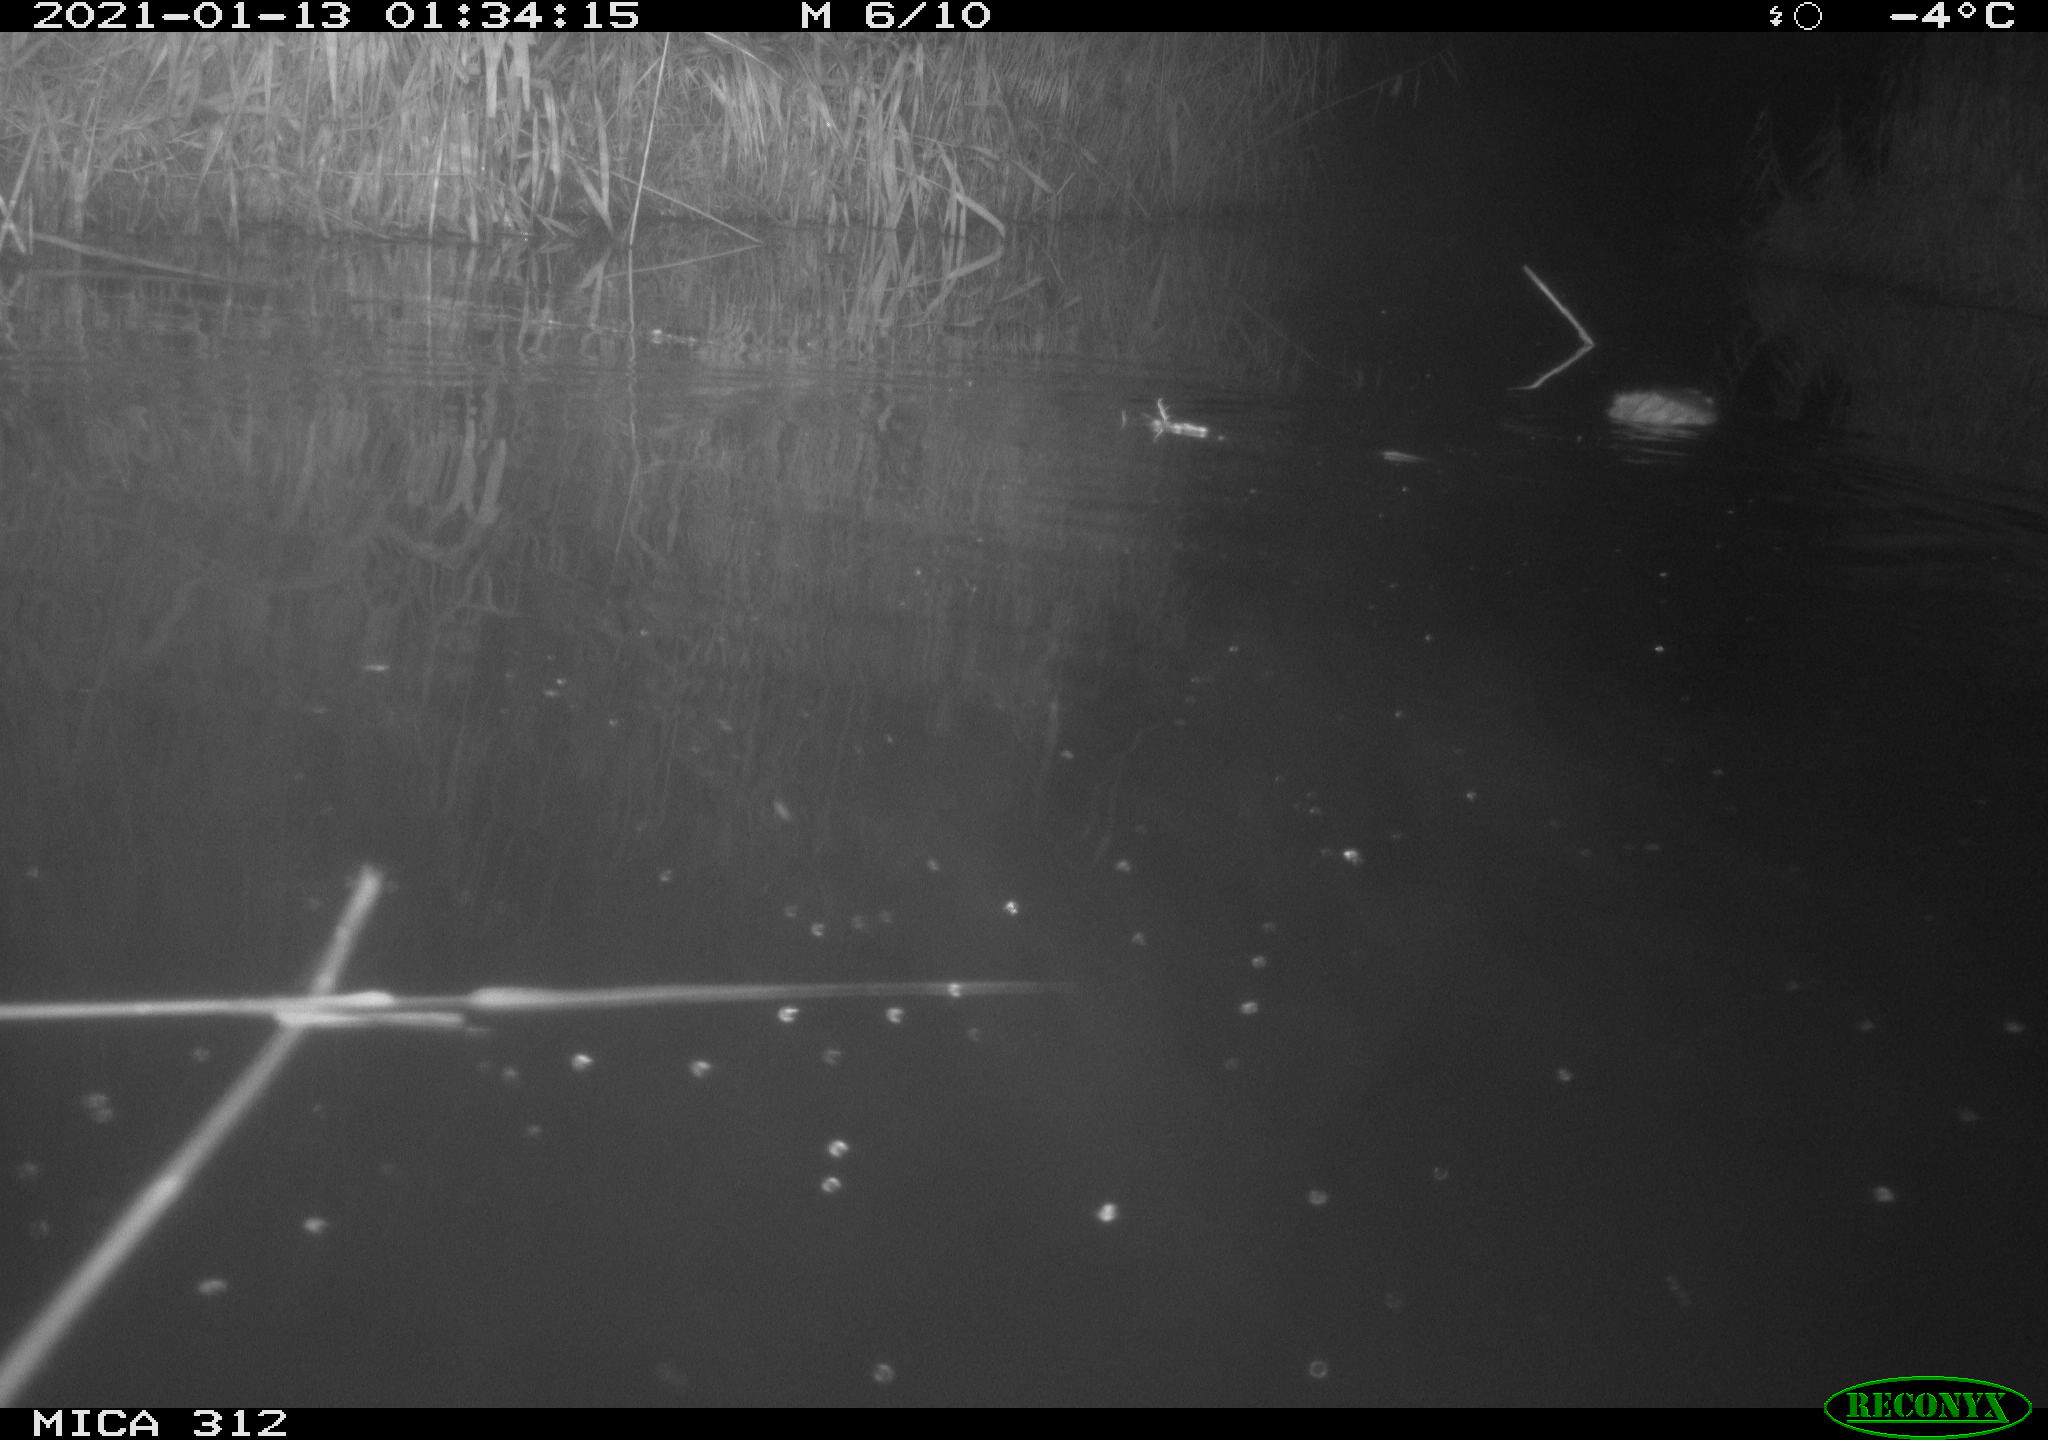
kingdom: Animalia
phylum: Chordata
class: Mammalia
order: Rodentia
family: Muridae
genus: Rattus
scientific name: Rattus norvegicus
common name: Brown rat
